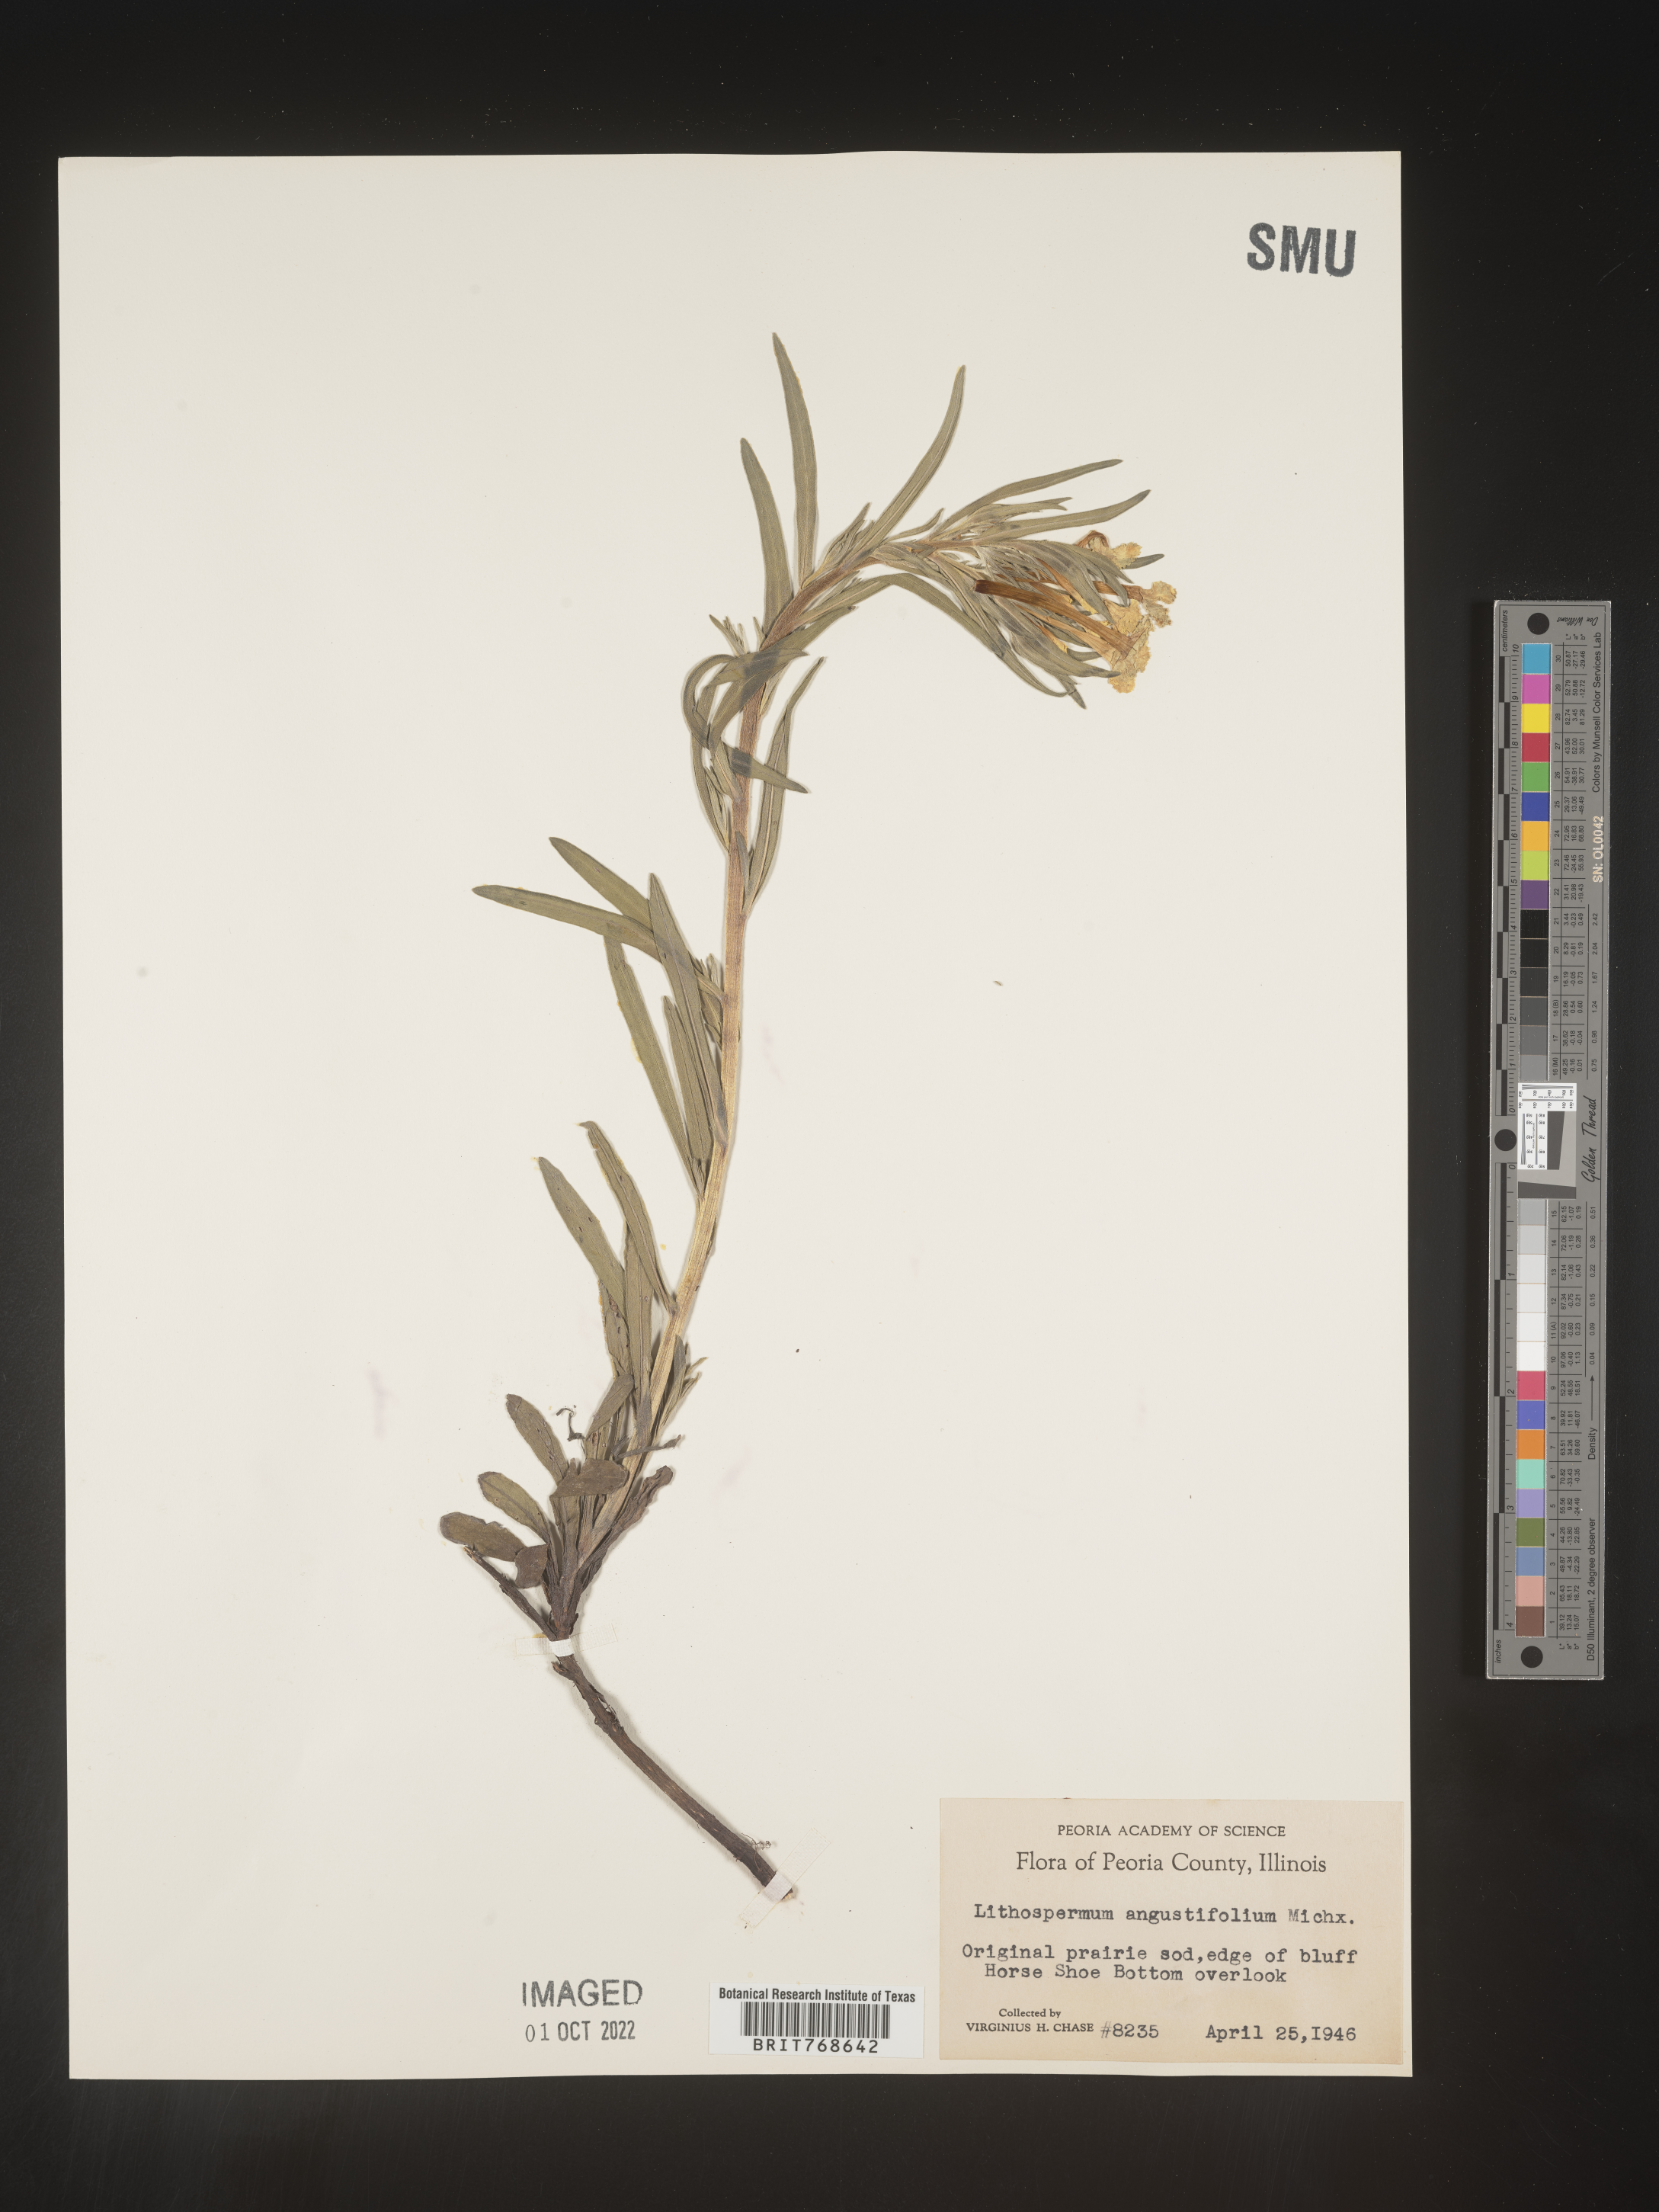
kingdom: Plantae
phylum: Tracheophyta
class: Magnoliopsida
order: Boraginales
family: Boraginaceae
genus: Lithospermum
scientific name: Lithospermum incisum
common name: Fringed gromwell
